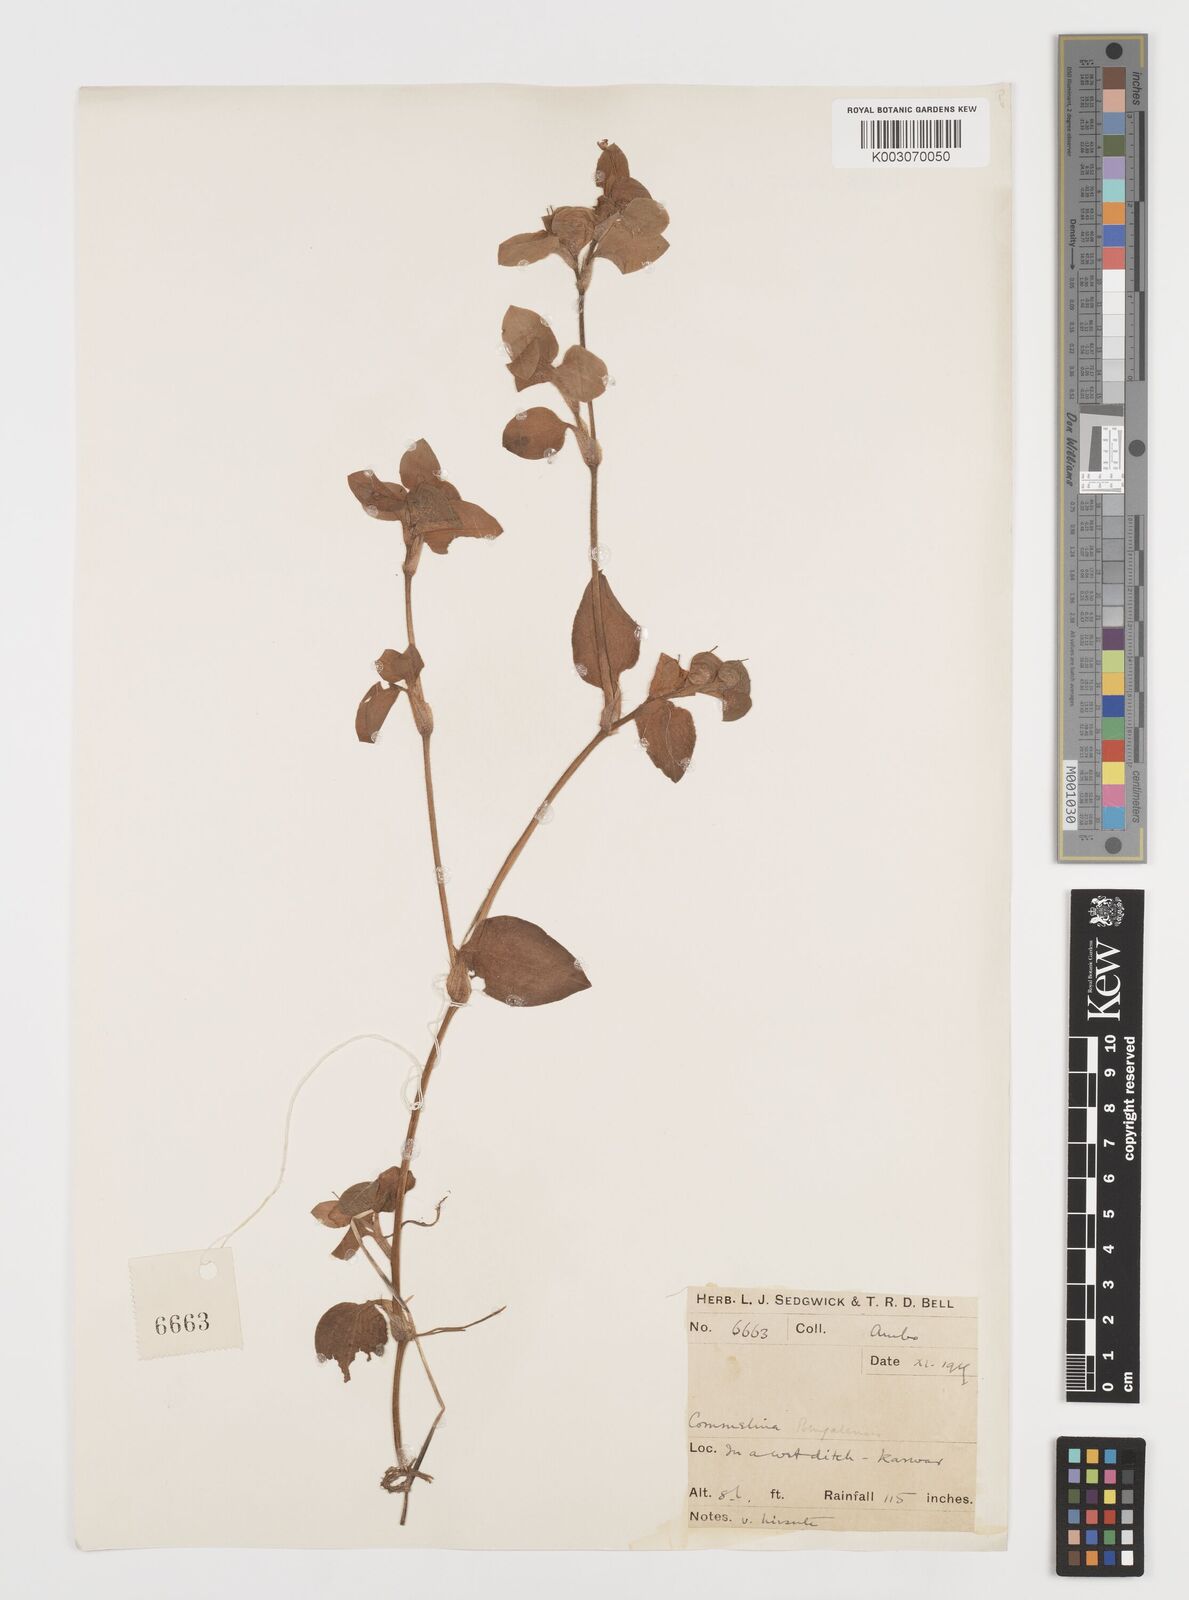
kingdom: Plantae
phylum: Tracheophyta
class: Liliopsida
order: Commelinales
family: Commelinaceae
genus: Commelina
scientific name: Commelina benghalensis
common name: Jio
